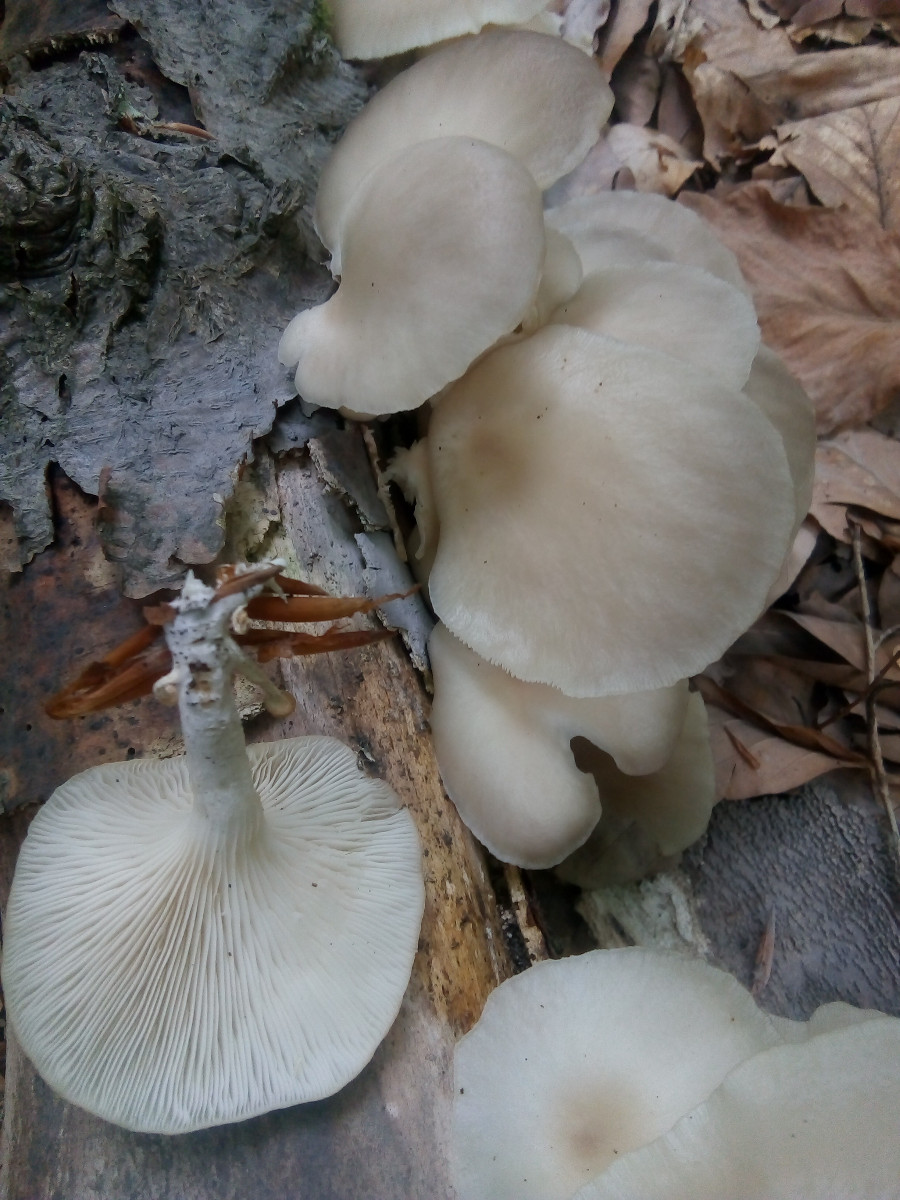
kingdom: Fungi
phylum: Basidiomycota
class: Agaricomycetes
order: Agaricales
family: Pleurotaceae
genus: Pleurotus
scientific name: Pleurotus pulmonarius
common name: sommer-østershat
